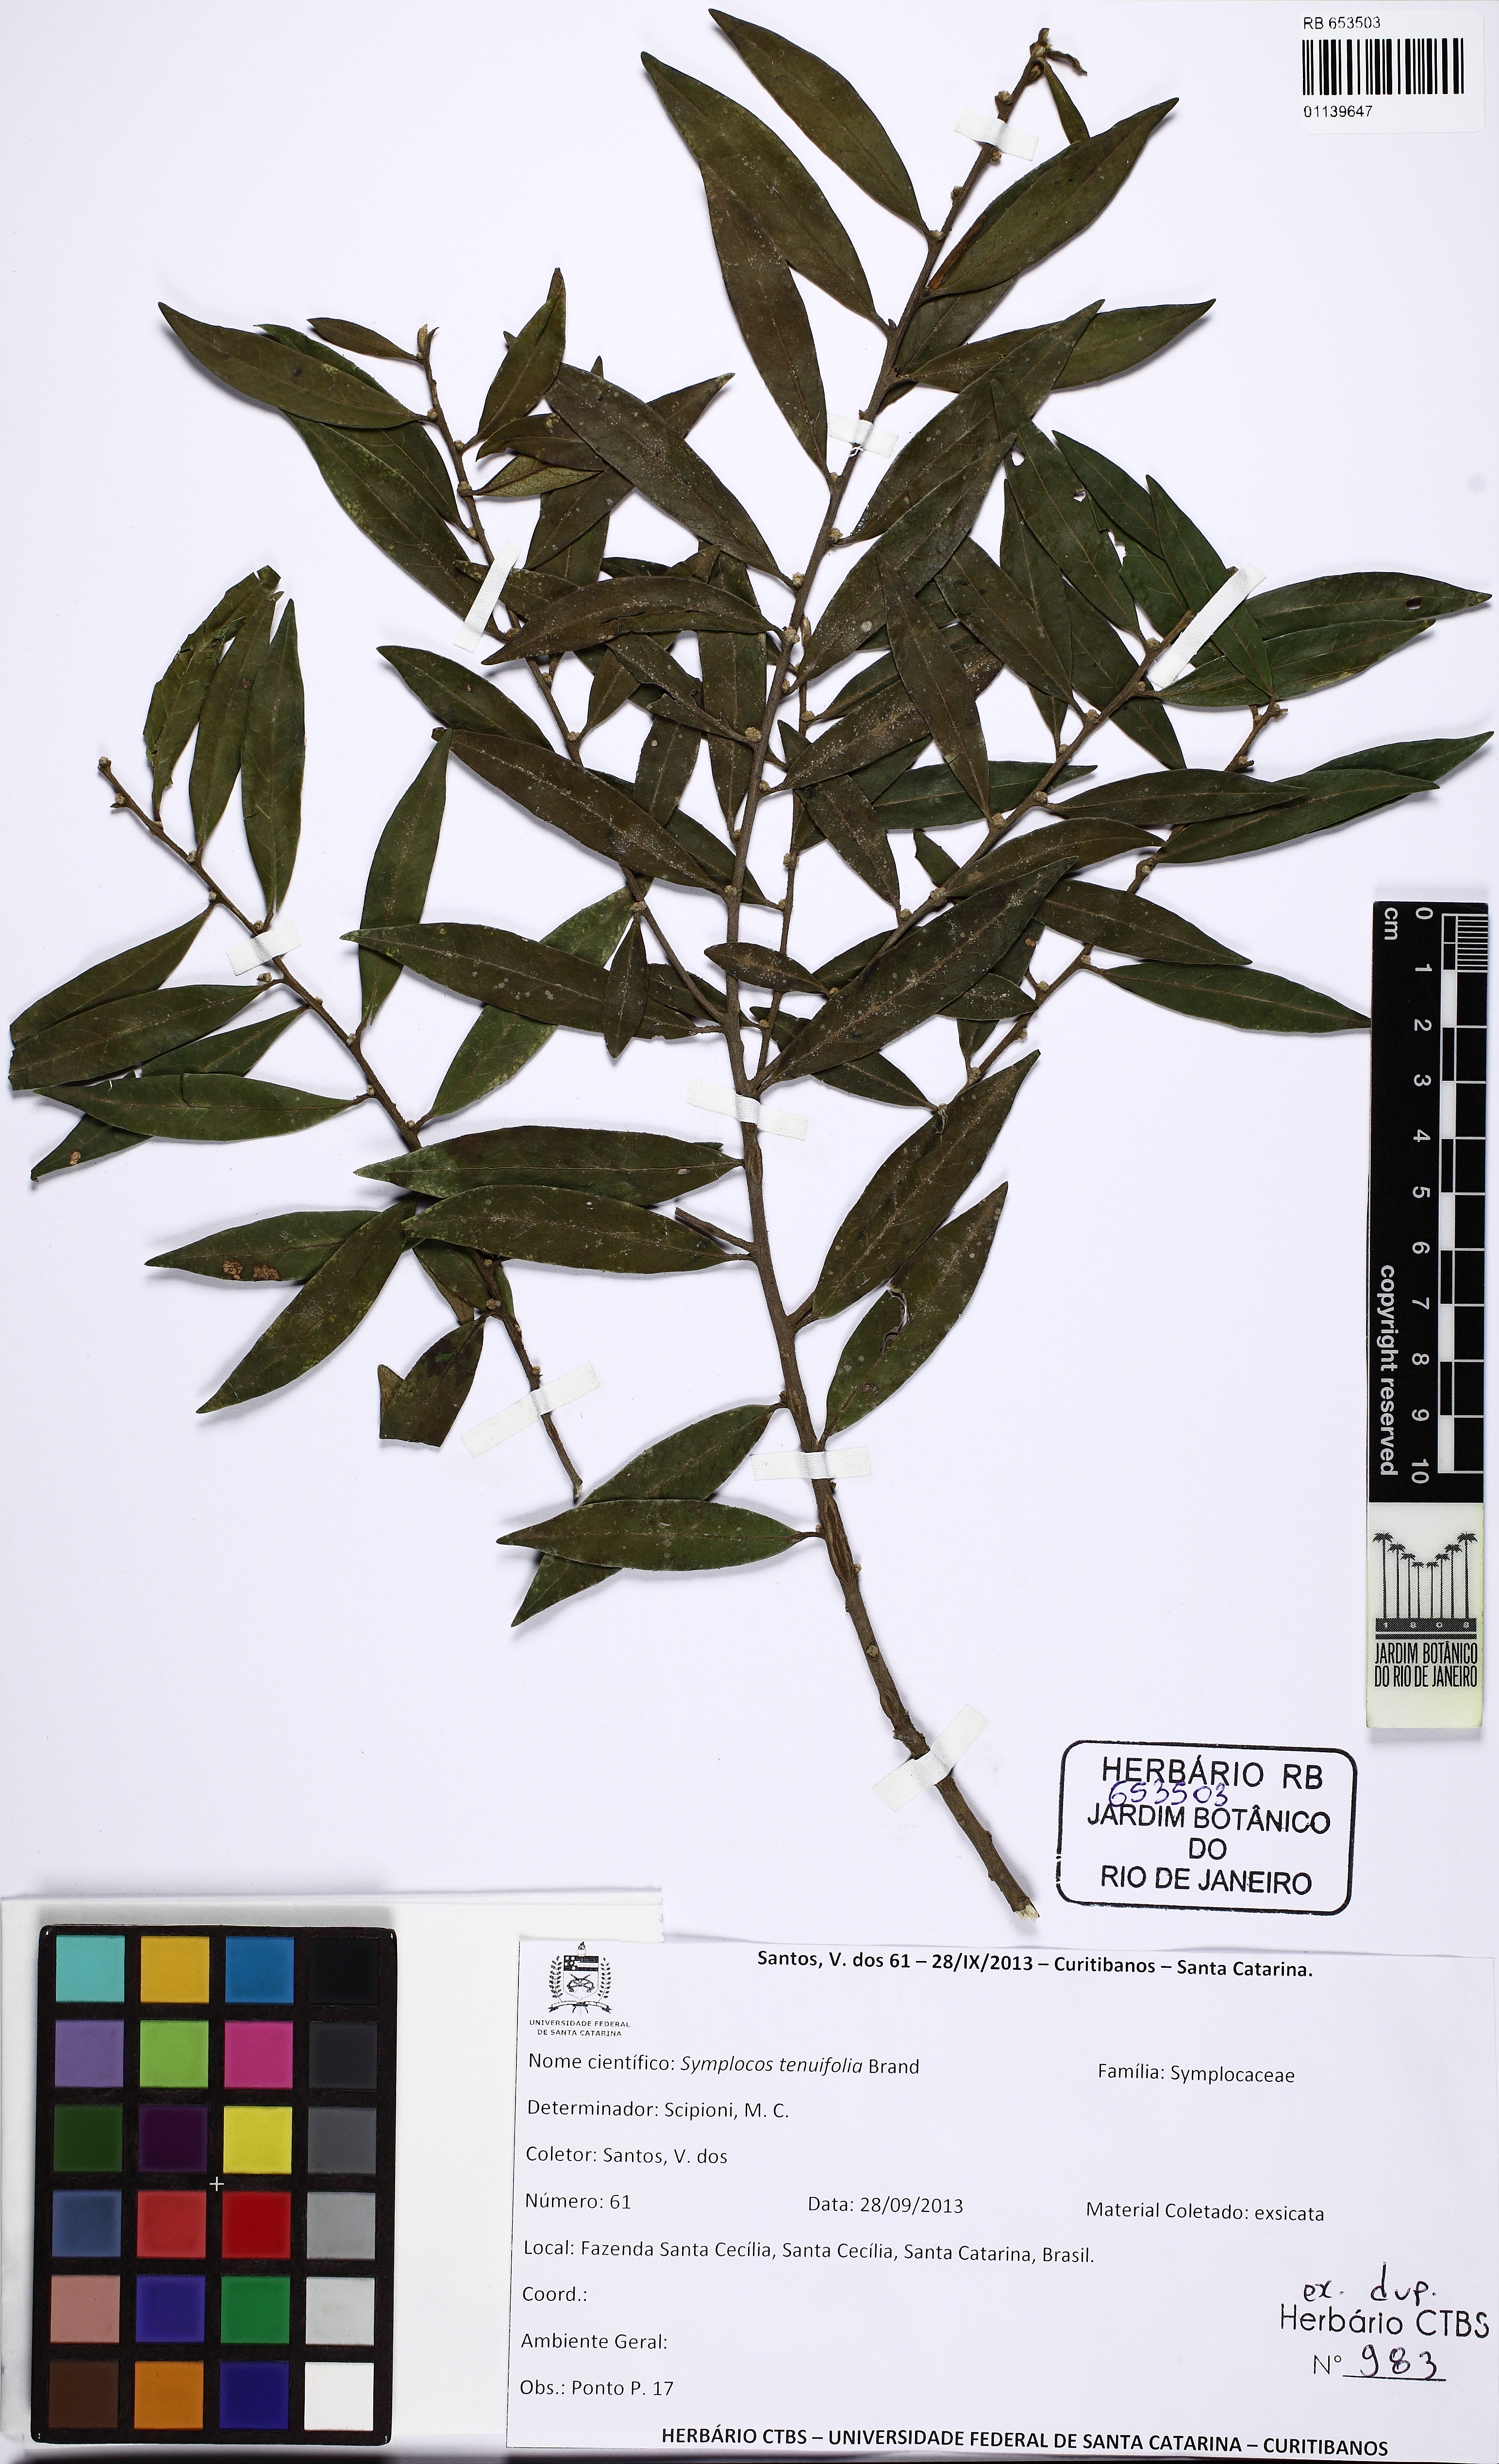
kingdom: Plantae
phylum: Tracheophyta
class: Magnoliopsida
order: Ericales
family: Symplocaceae
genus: Symplocos
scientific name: Symplocos tenuifolia
